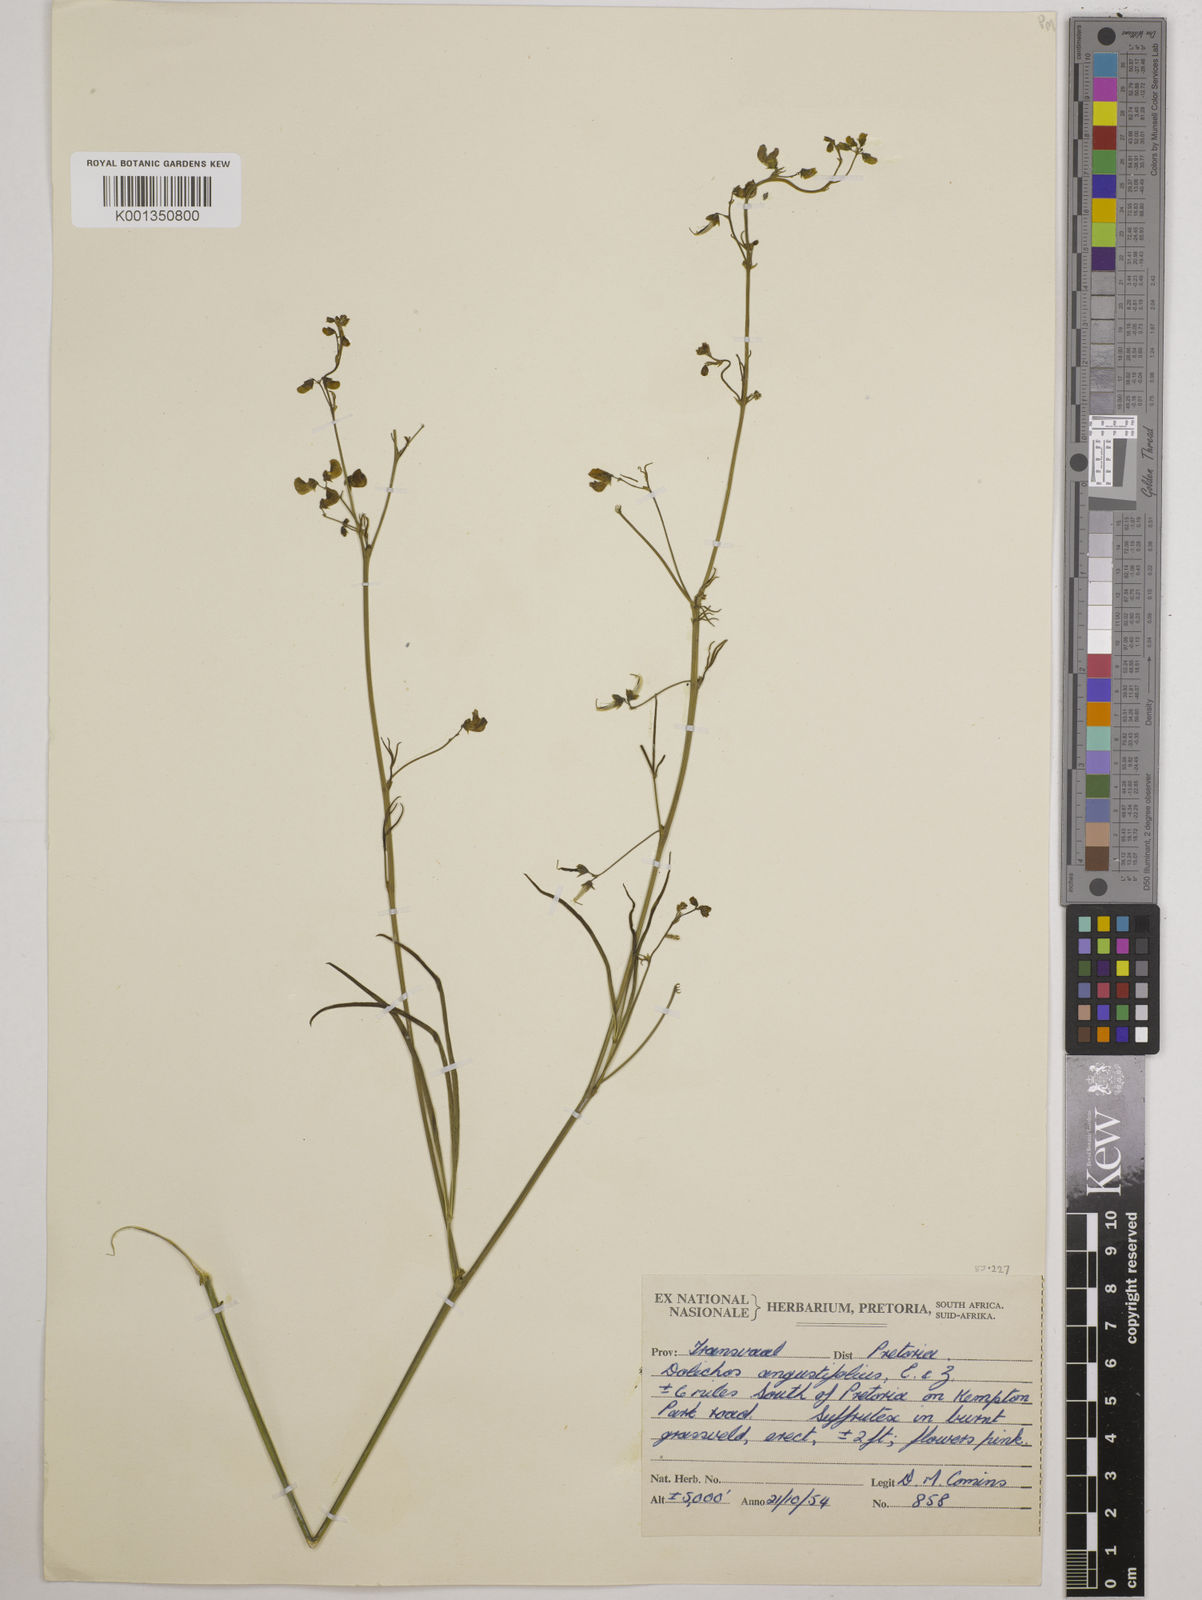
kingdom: Plantae
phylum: Tracheophyta
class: Magnoliopsida
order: Fabales
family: Fabaceae
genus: Dolichos
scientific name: Dolichos
